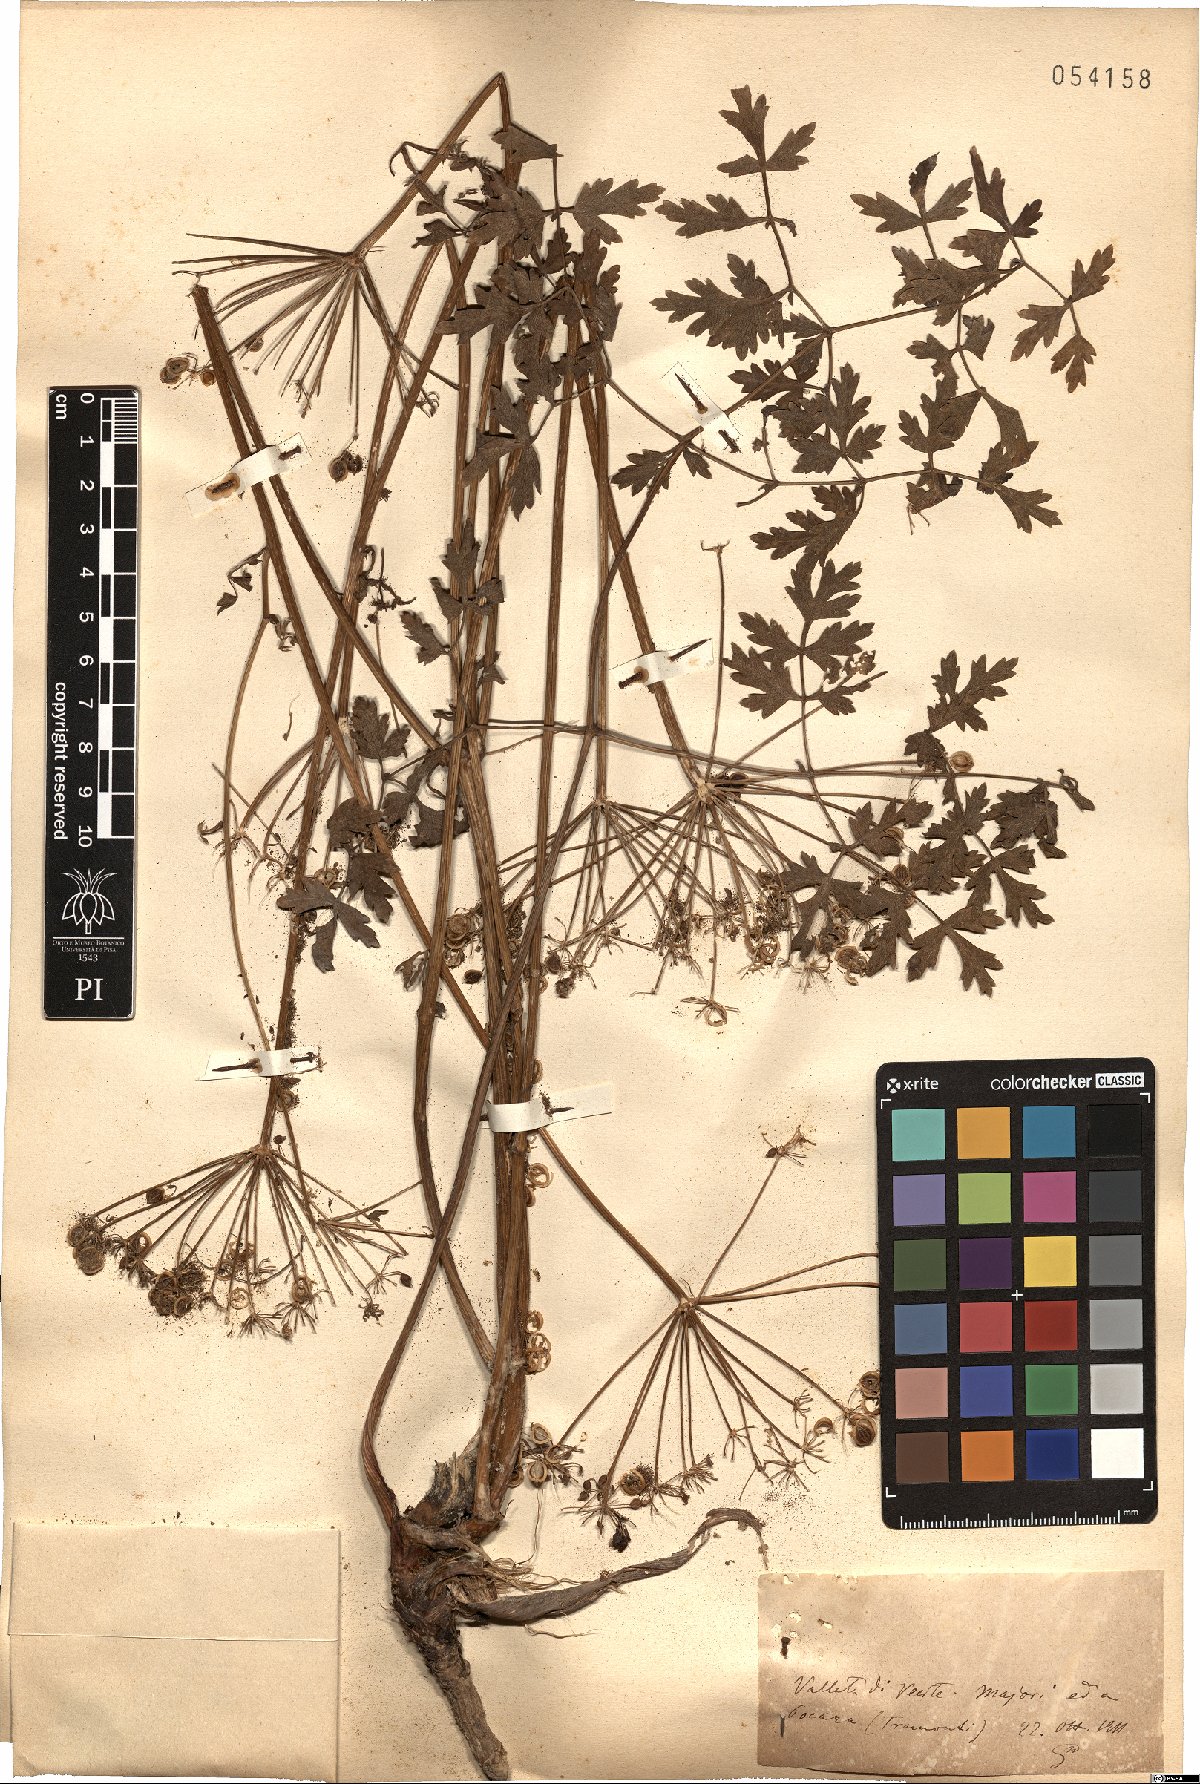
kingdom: Plantae
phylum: Tracheophyta
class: Magnoliopsida
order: Apiales
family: Apiaceae
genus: Peucedanum
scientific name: Peucedanum
